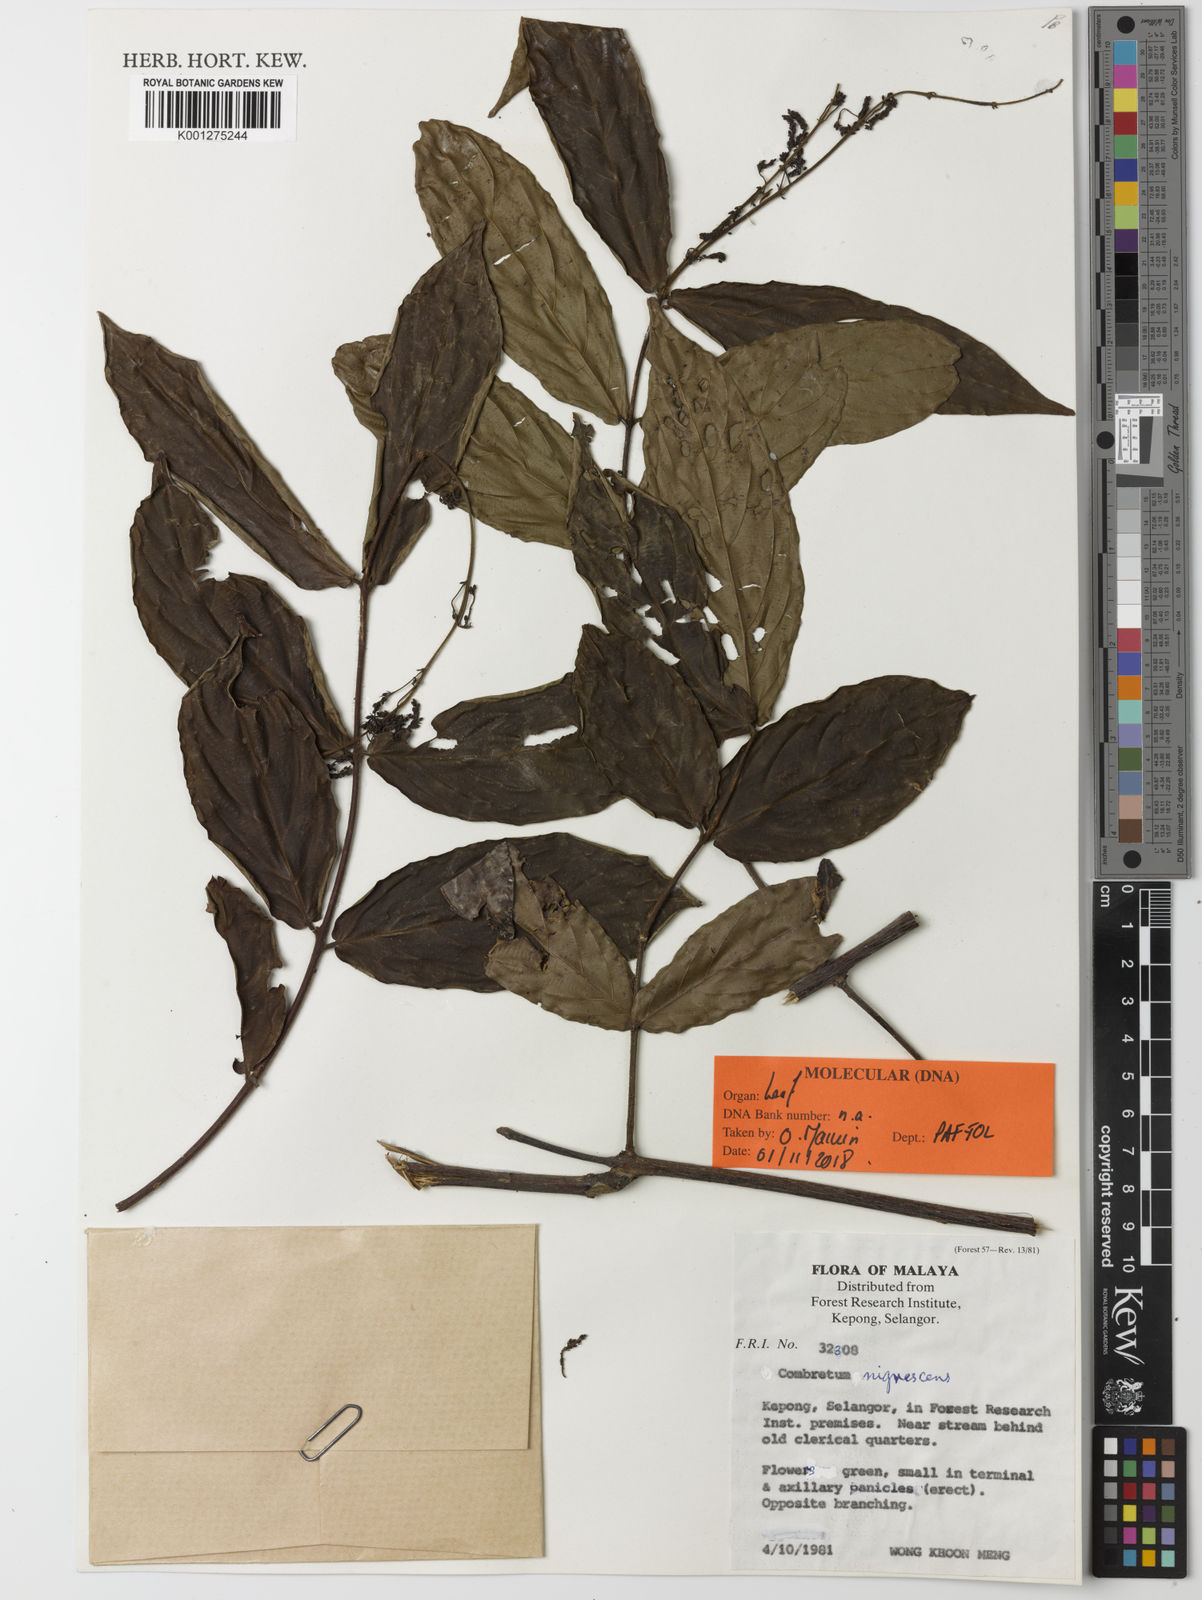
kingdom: Plantae
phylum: Tracheophyta
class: Magnoliopsida
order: Myrtales
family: Combretaceae
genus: Combretum
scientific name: Combretum nigrescens
